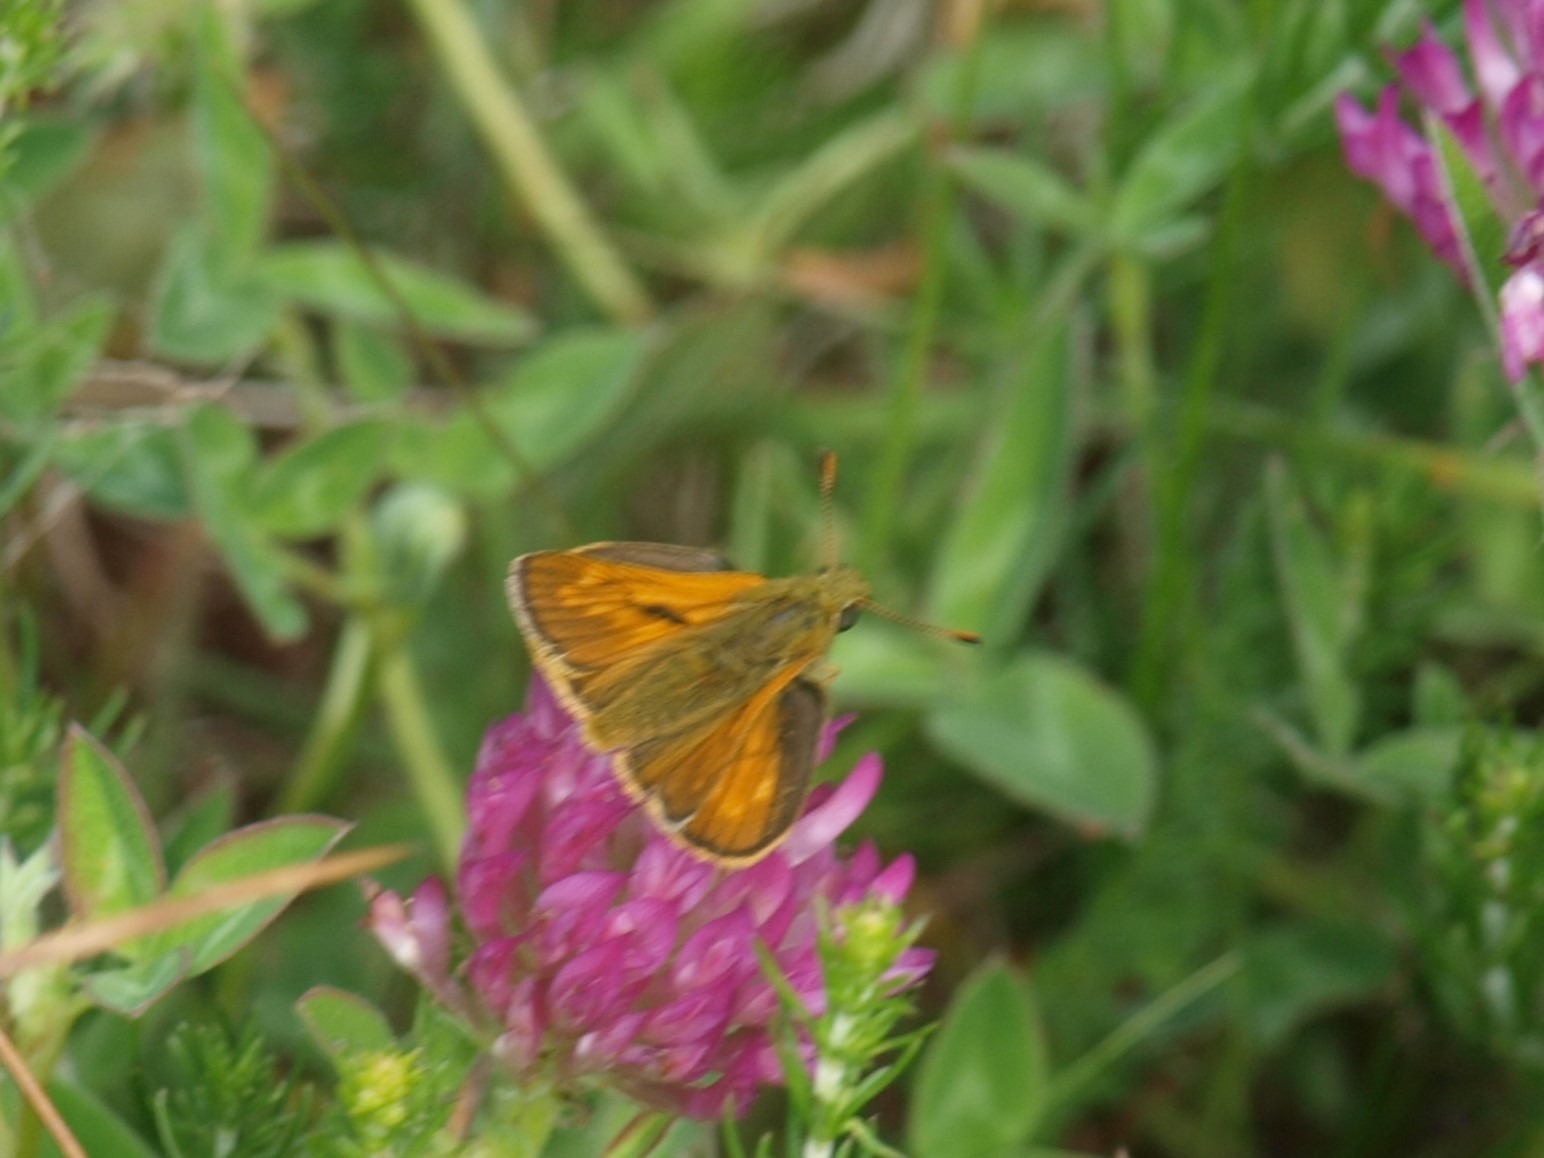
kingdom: Animalia
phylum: Arthropoda
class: Insecta
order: Lepidoptera
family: Hesperiidae
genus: Ochlodes
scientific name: Ochlodes venata
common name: Stor bredpande
